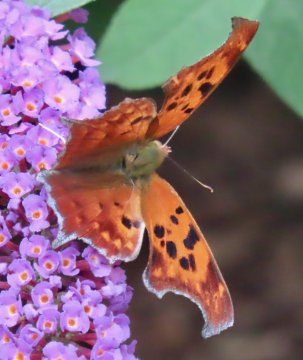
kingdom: Animalia
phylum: Arthropoda
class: Insecta
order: Lepidoptera
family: Nymphalidae
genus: Polygonia
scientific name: Polygonia interrogationis
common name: Question Mark
